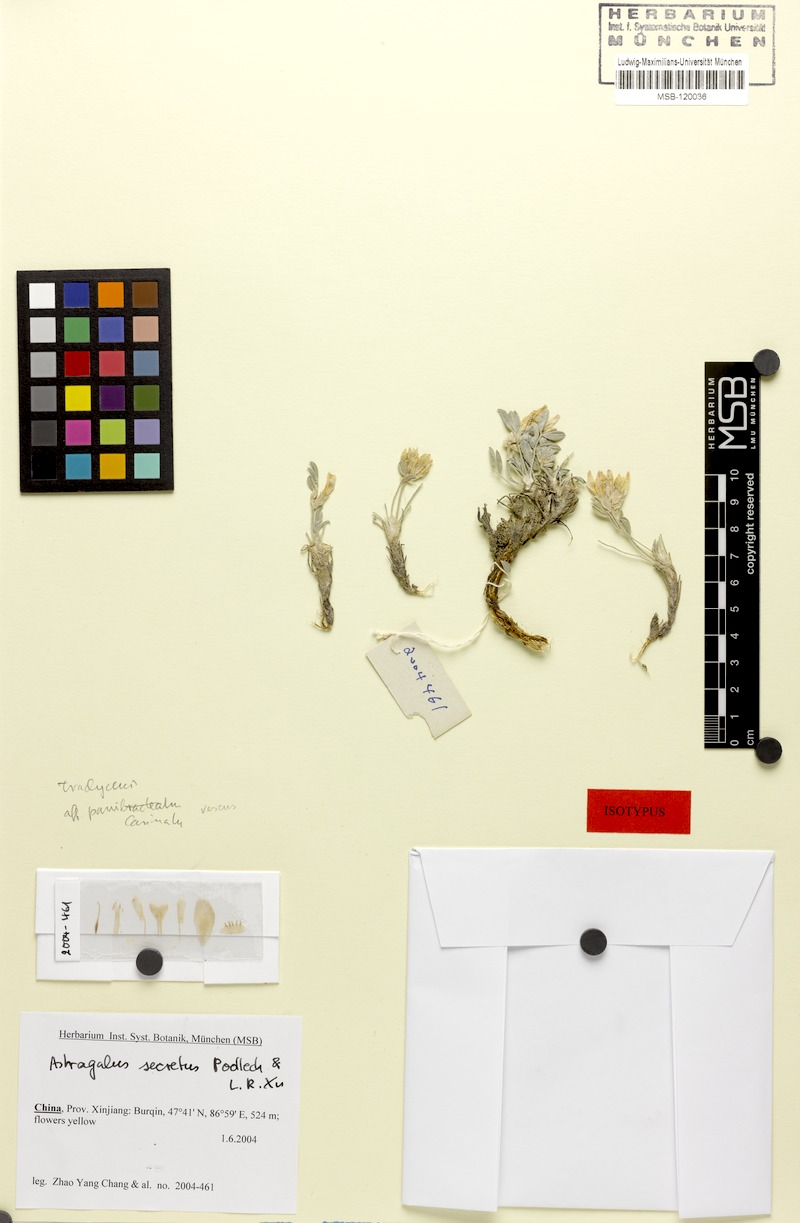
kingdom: Plantae
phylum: Tracheophyta
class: Magnoliopsida
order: Fabales
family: Fabaceae
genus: Astragalus
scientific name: Astragalus secretus
